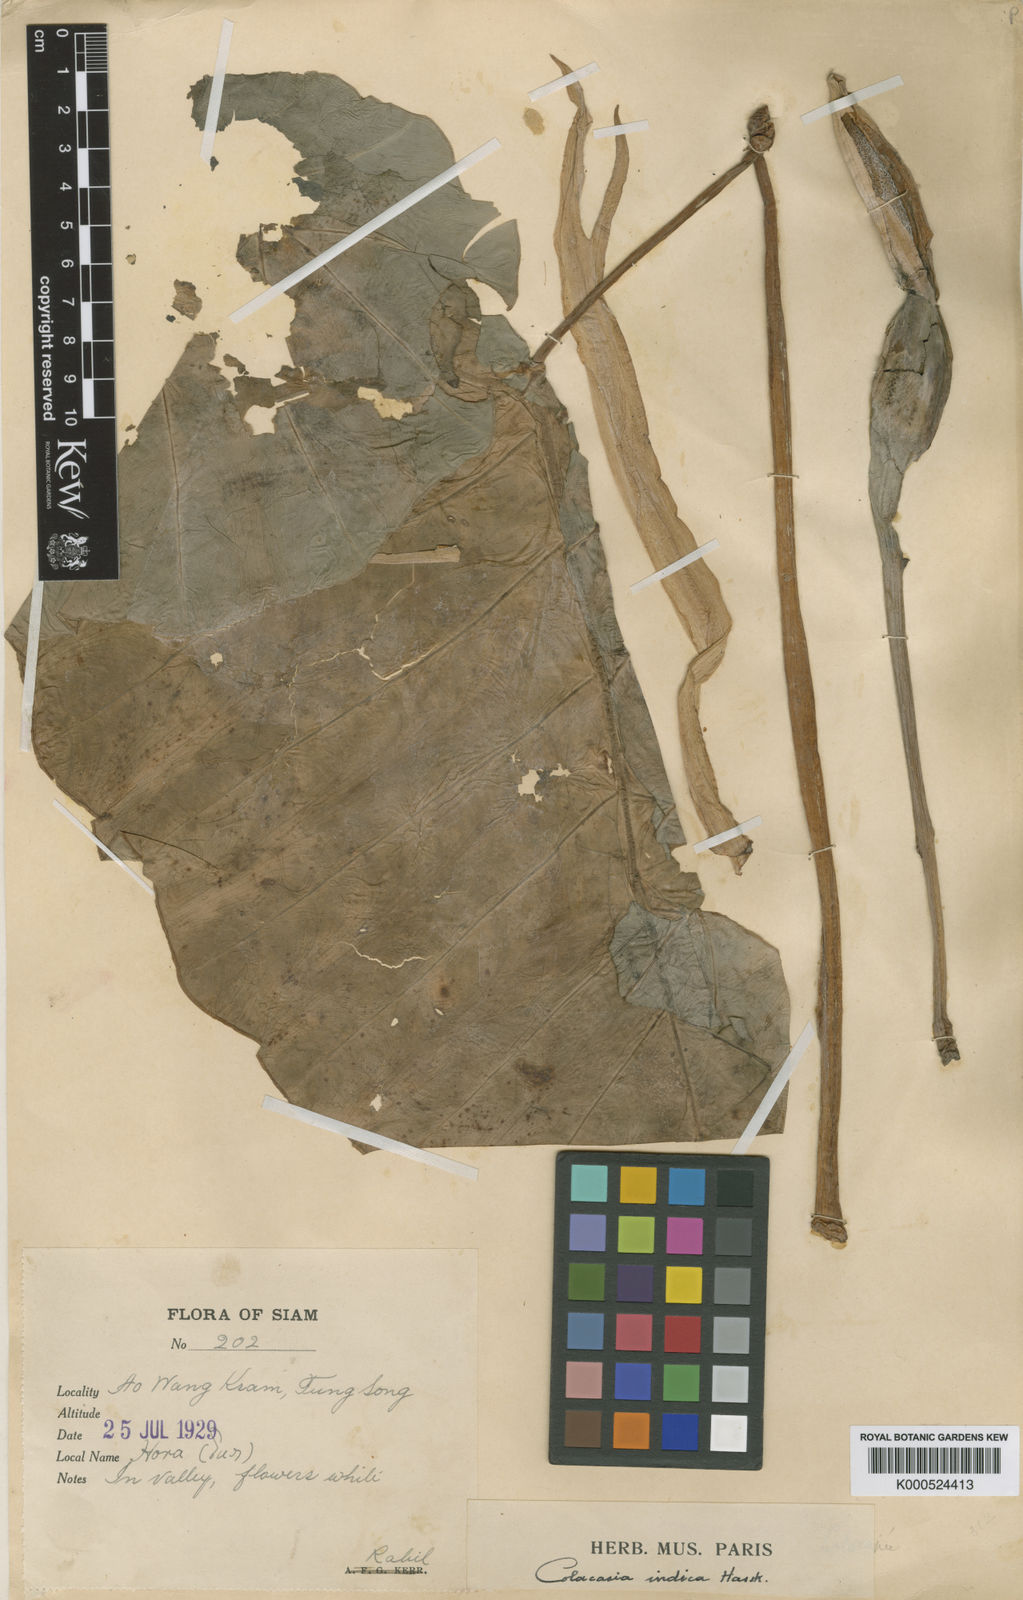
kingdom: Plantae
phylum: Tracheophyta
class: Liliopsida
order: Alismatales
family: Araceae
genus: Leucocasia
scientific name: Leucocasia gigantea
